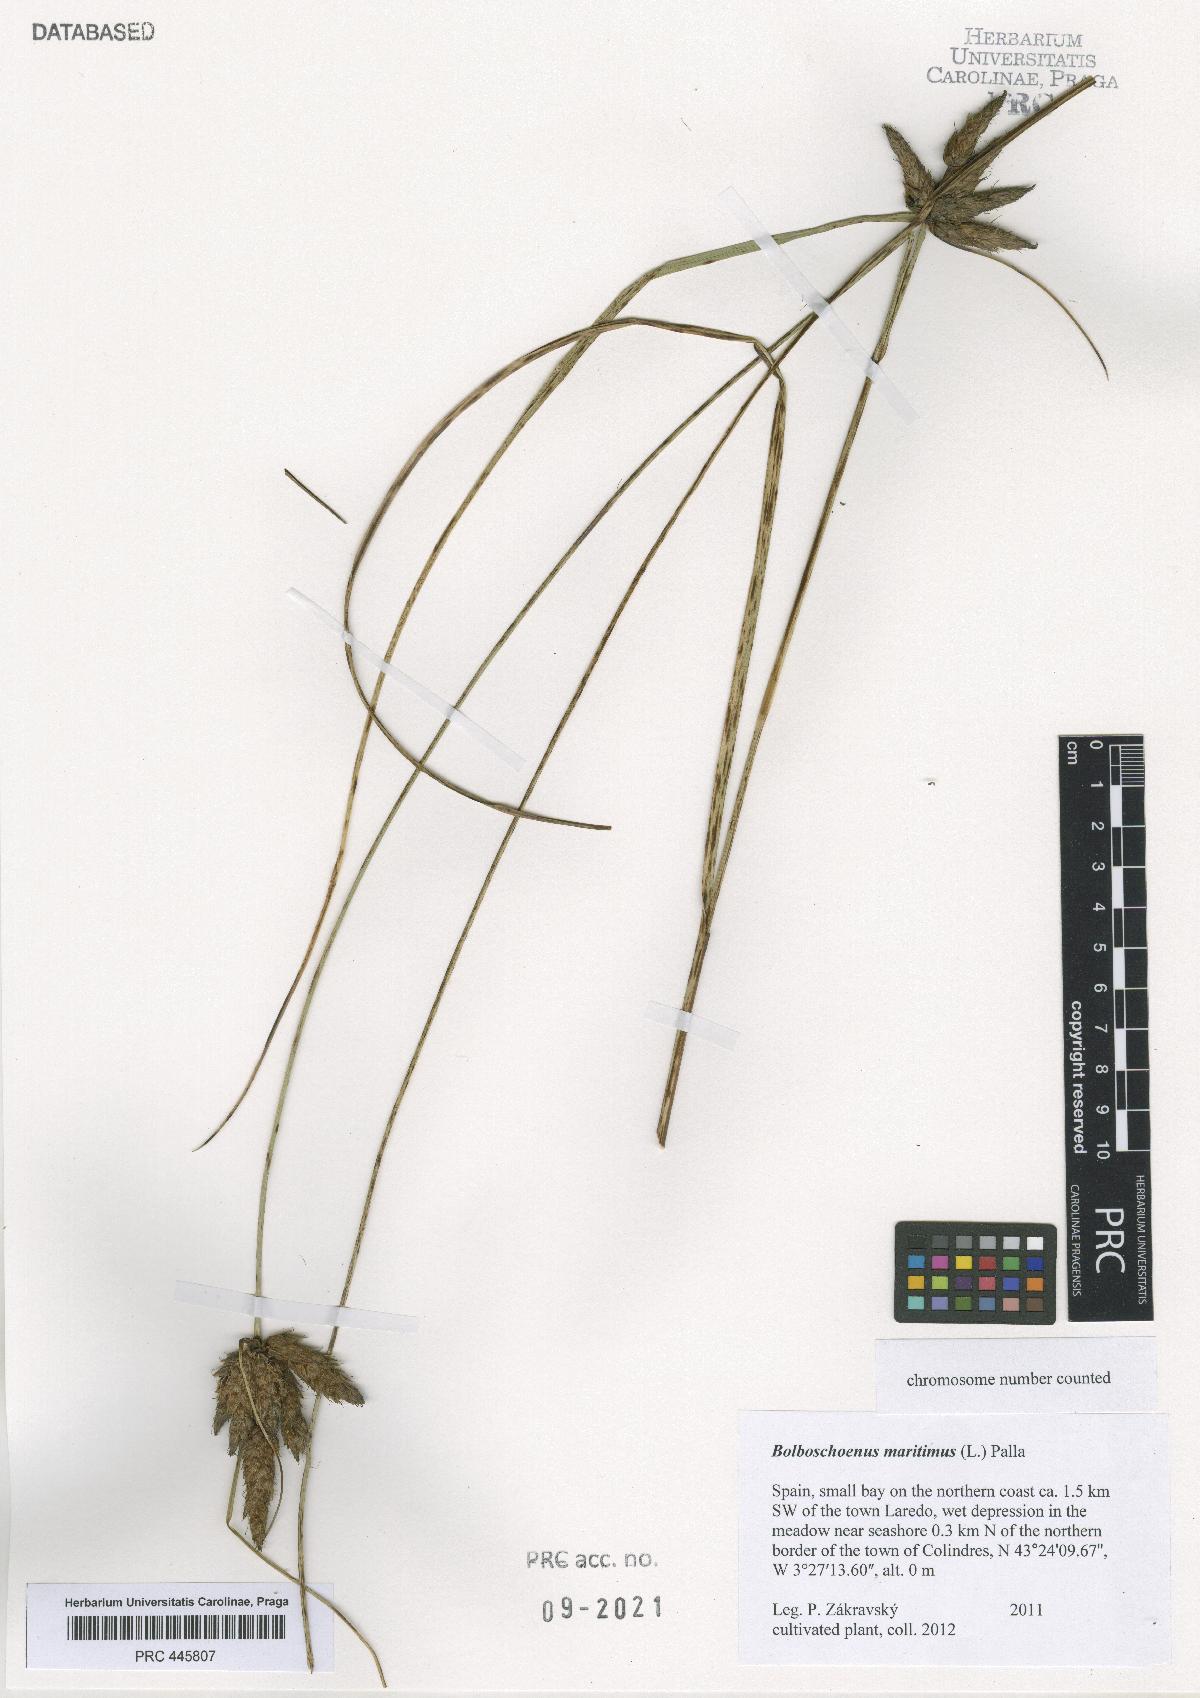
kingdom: Plantae
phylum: Tracheophyta
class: Liliopsida
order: Poales
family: Cyperaceae
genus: Bolboschoenus
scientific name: Bolboschoenus maritimus
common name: Sea club-rush
